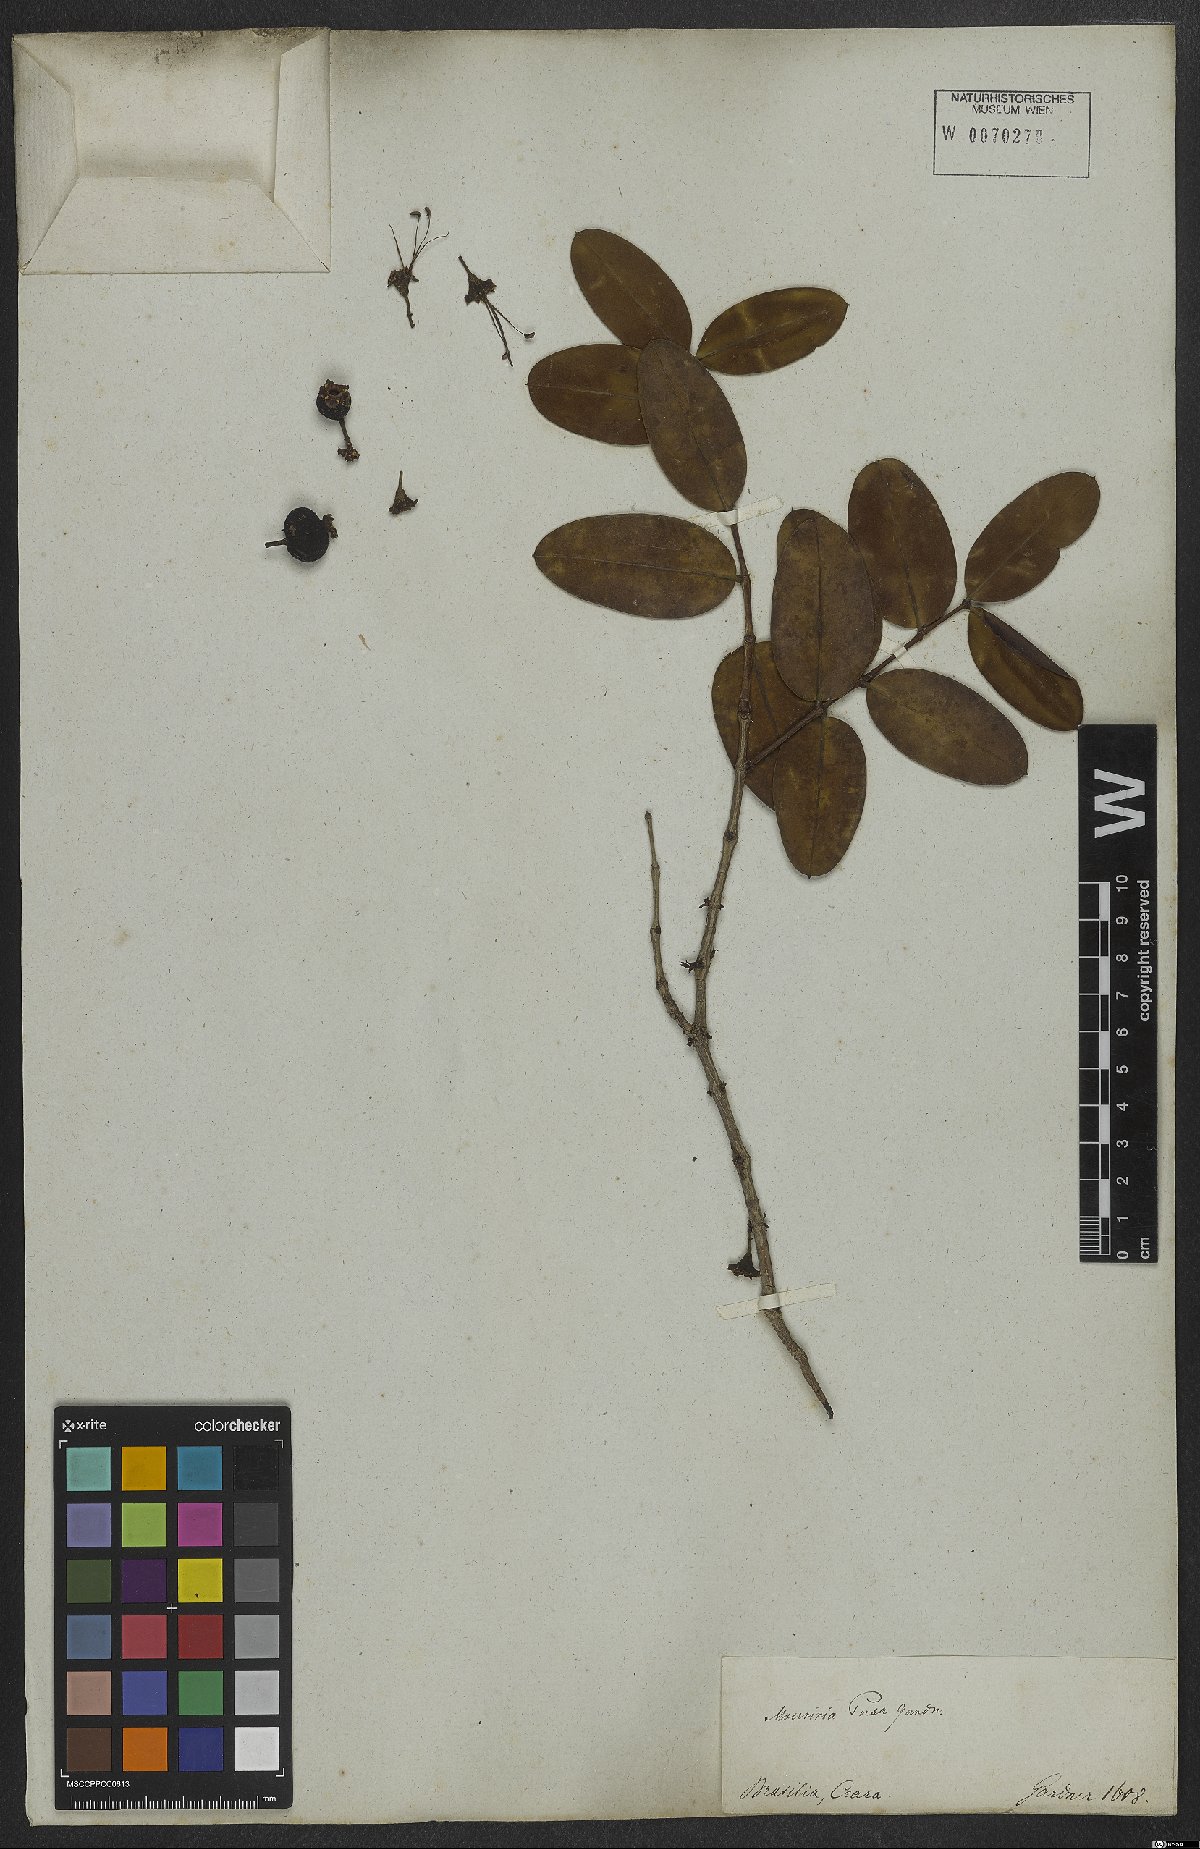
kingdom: Plantae
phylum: Tracheophyta
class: Magnoliopsida
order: Myrtales
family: Melastomataceae
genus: Mouriri
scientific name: Mouriri pusa
